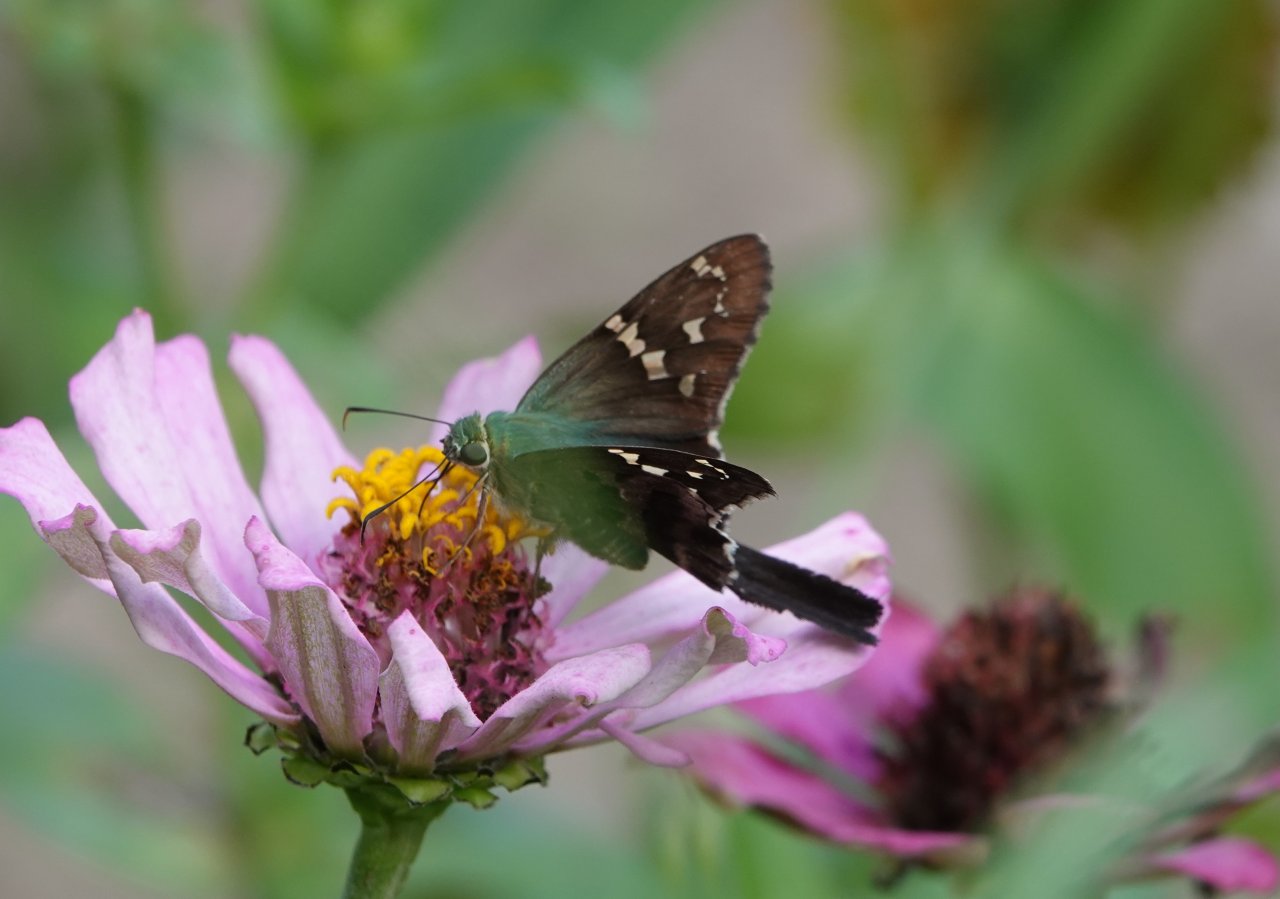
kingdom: Animalia
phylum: Arthropoda
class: Insecta
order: Lepidoptera
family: Hesperiidae
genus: Urbanus
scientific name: Urbanus proteus
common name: Long-tailed Skipper
